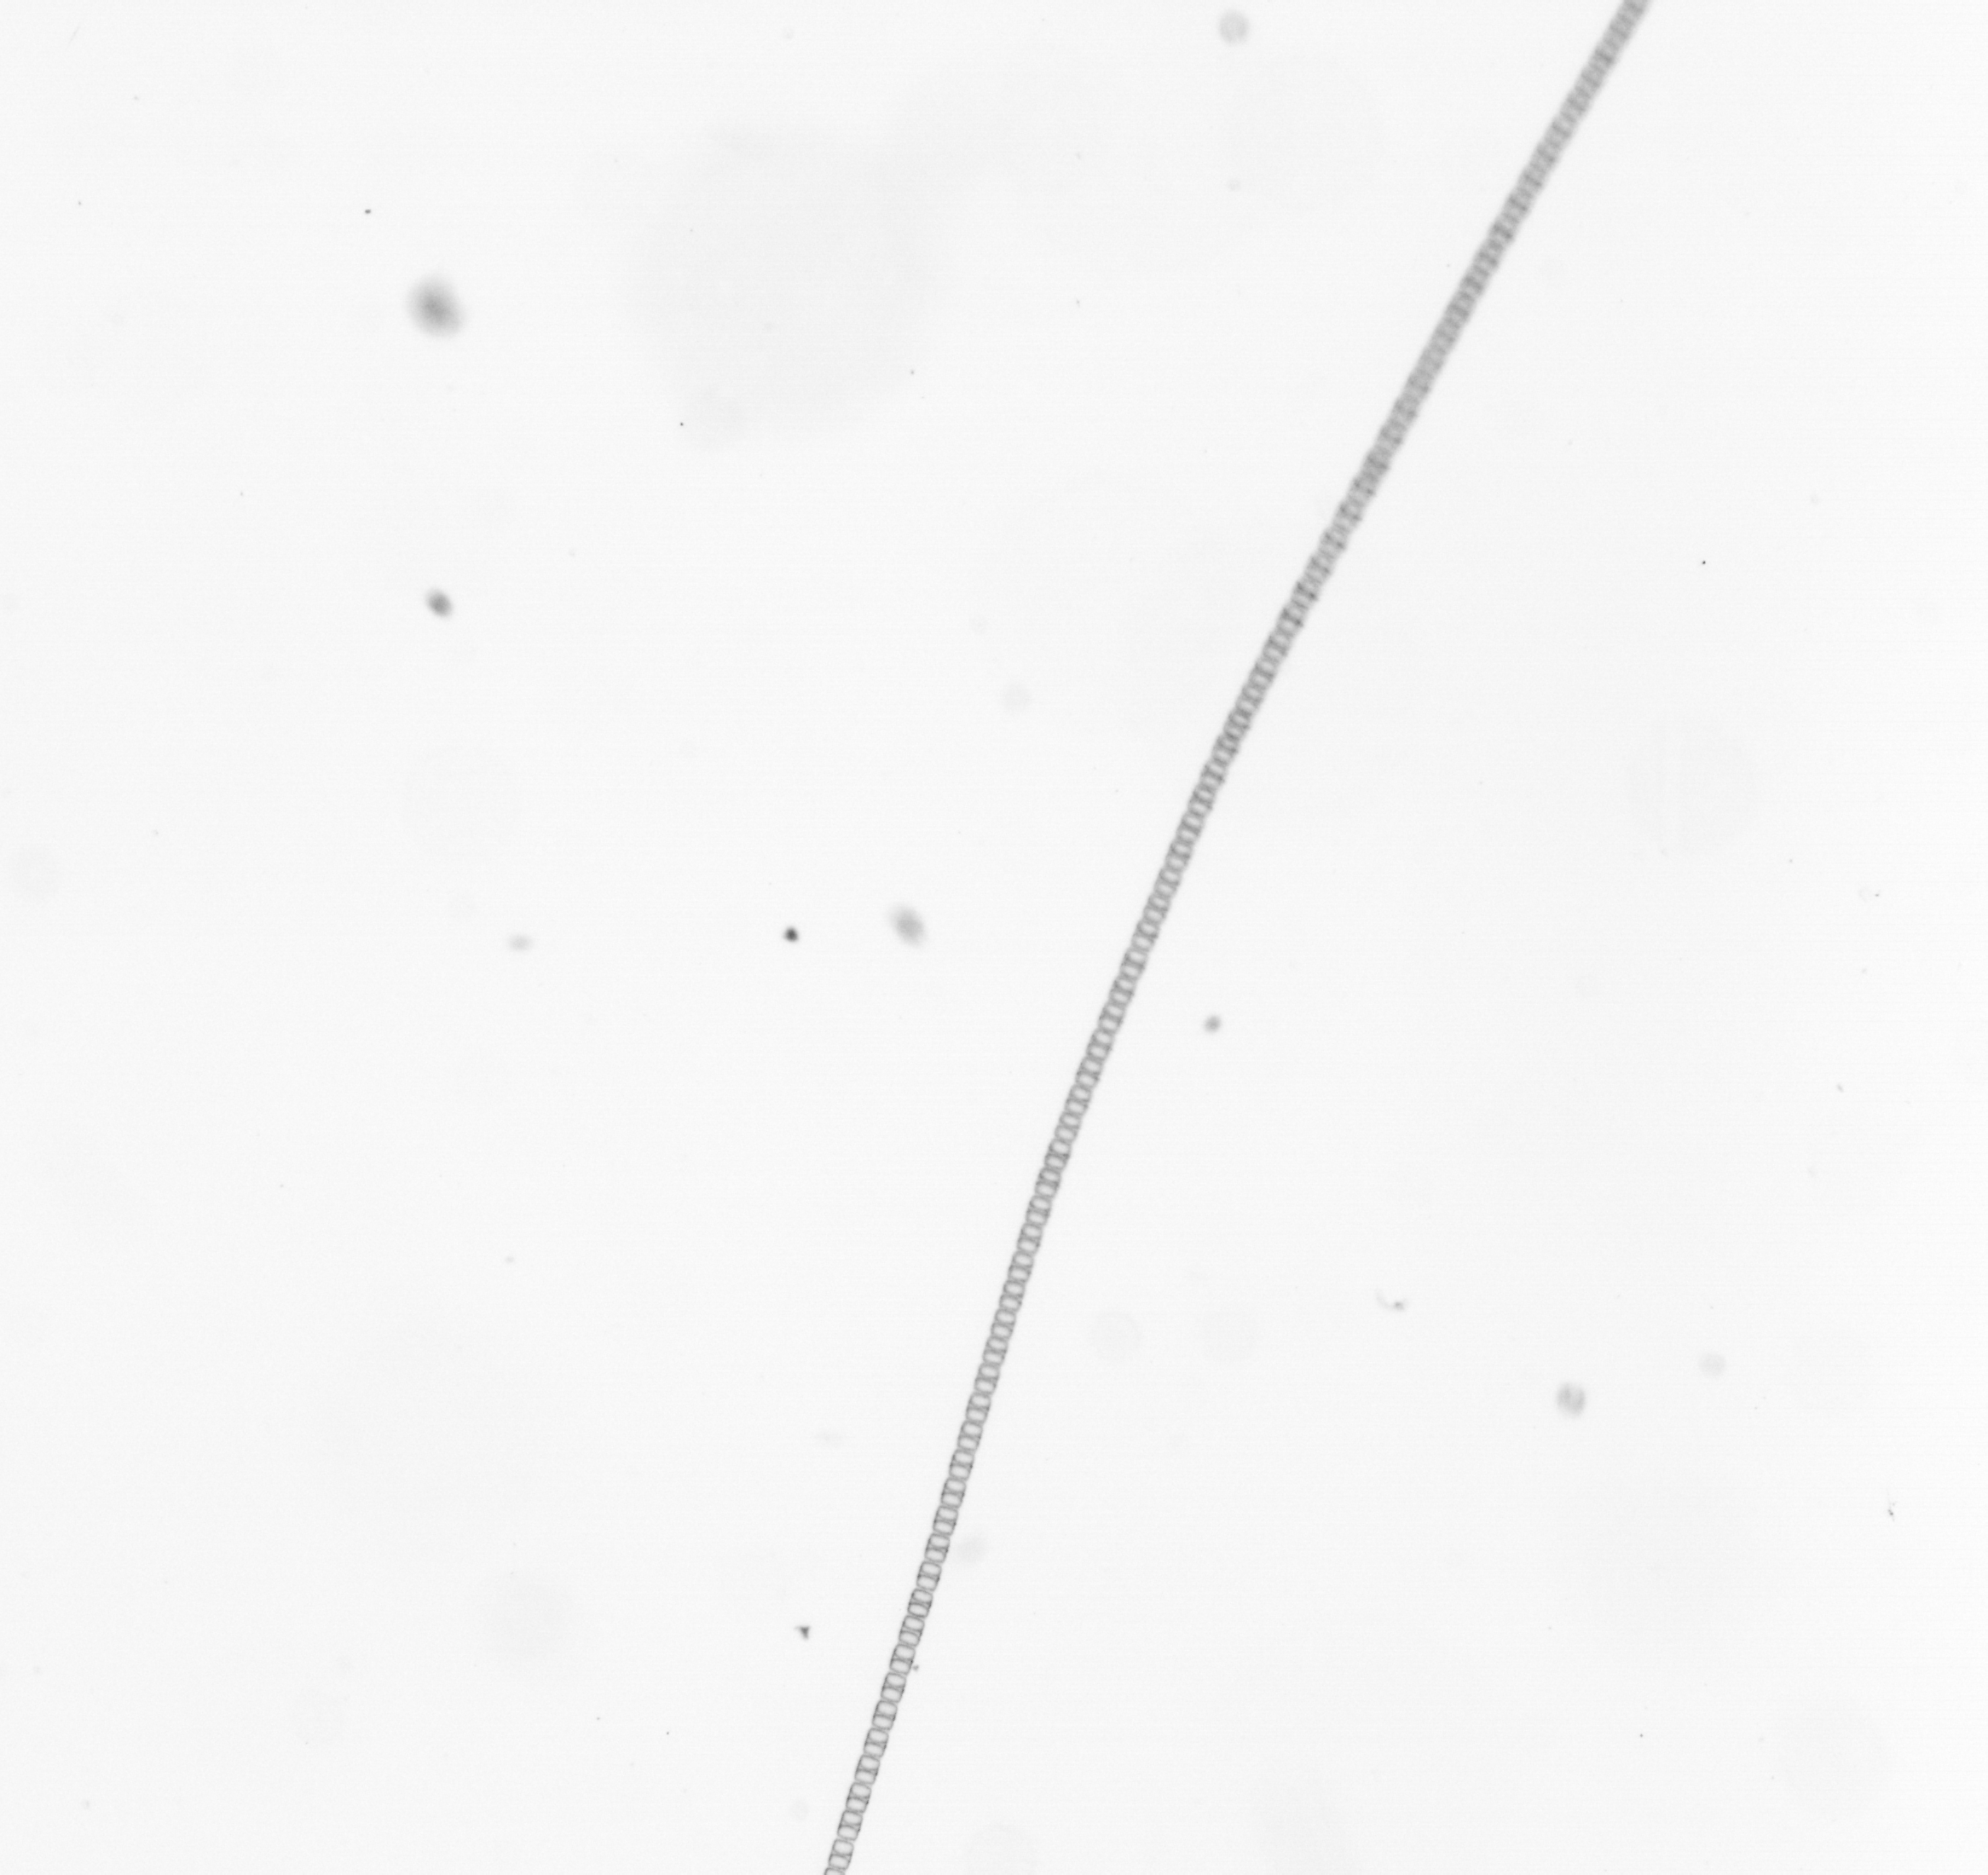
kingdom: Chromista
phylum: Ochrophyta
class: Bacillariophyceae
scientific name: Bacillariophyceae
